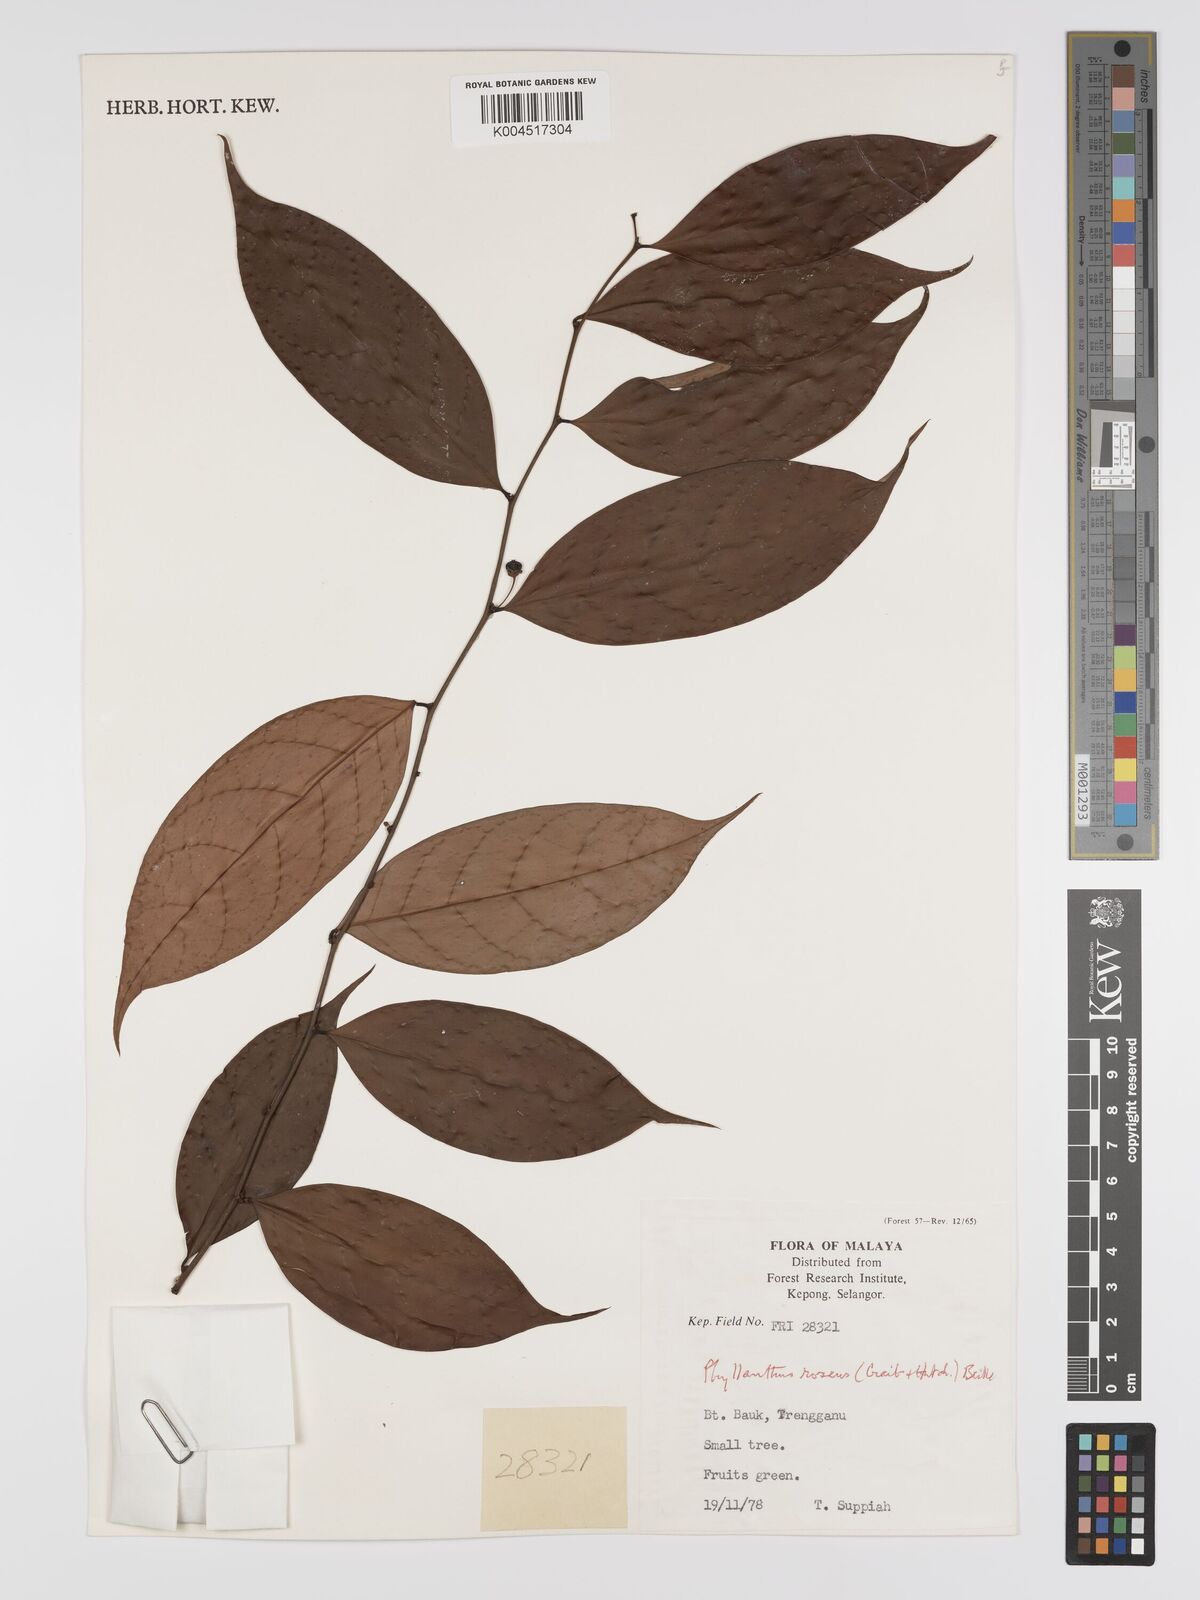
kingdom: Plantae
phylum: Tracheophyta
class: Magnoliopsida
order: Malpighiales
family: Phyllanthaceae
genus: Phyllanthus
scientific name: Phyllanthus roseus
